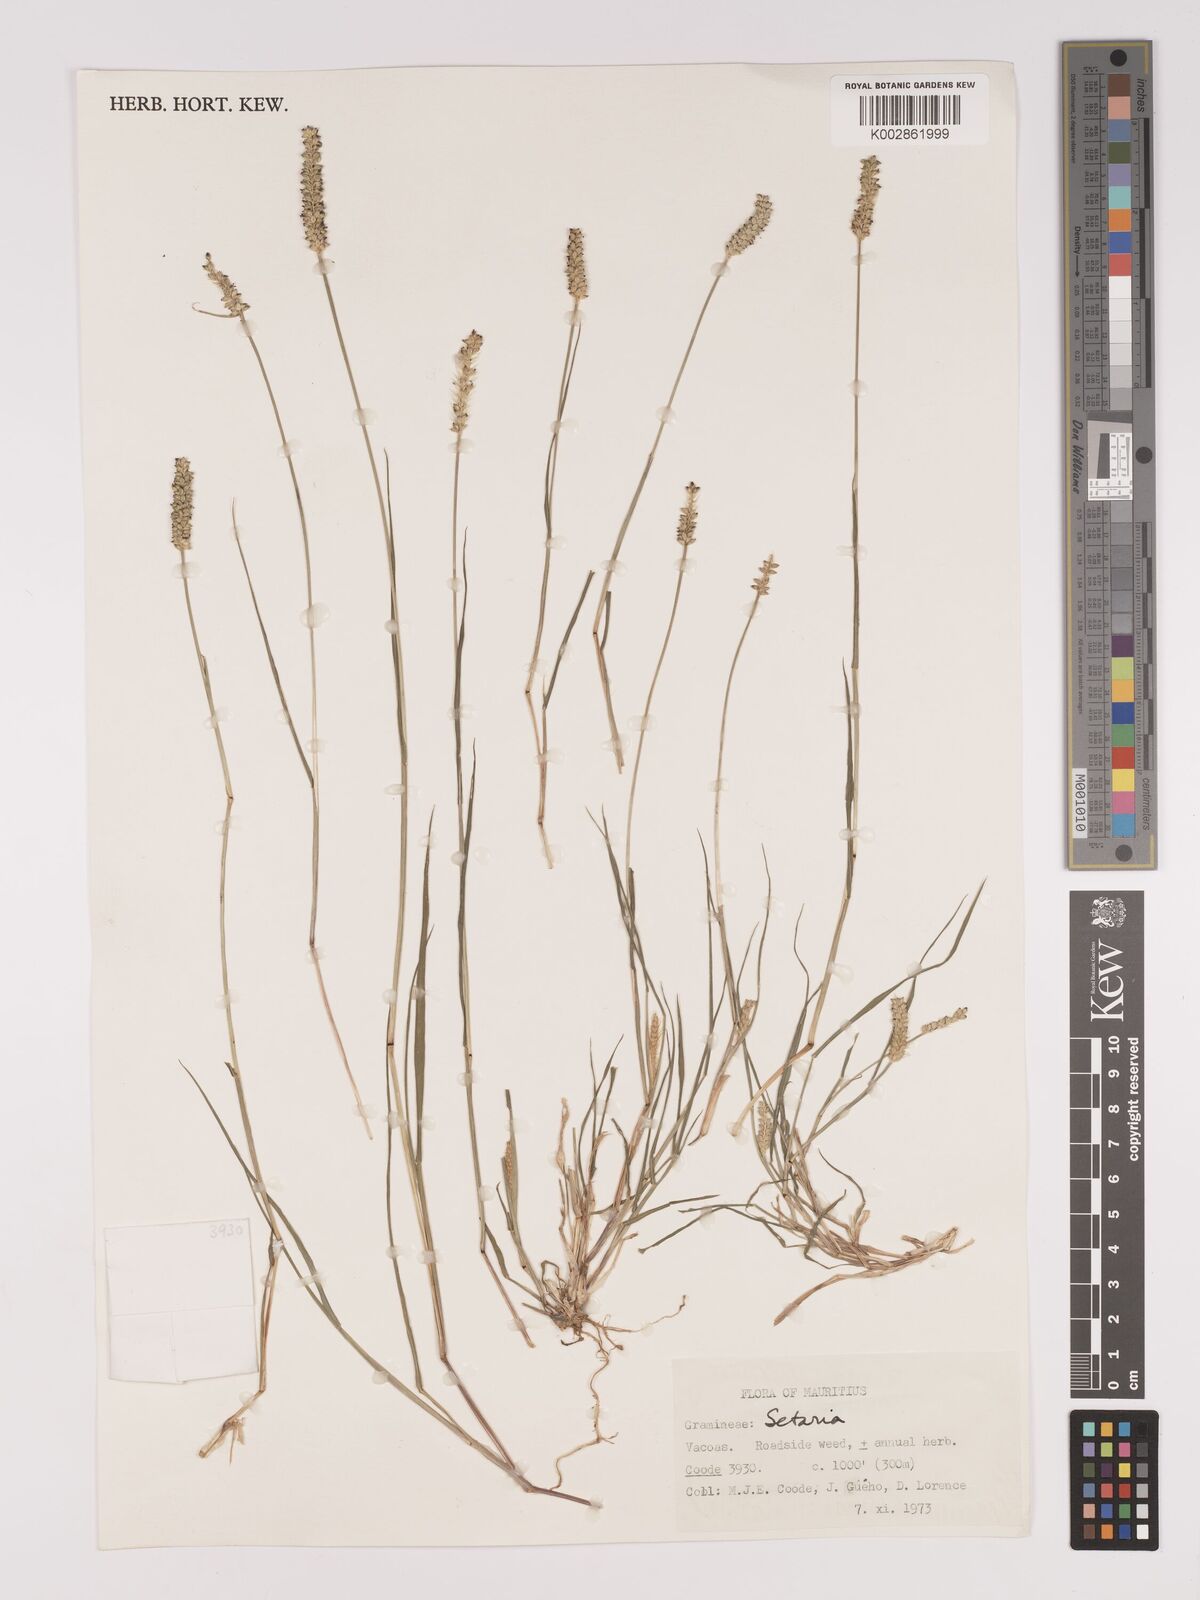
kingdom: Plantae
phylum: Tracheophyta
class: Liliopsida
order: Poales
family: Poaceae
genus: Setaria
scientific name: Setaria pumila
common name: Yellow bristle-grass
